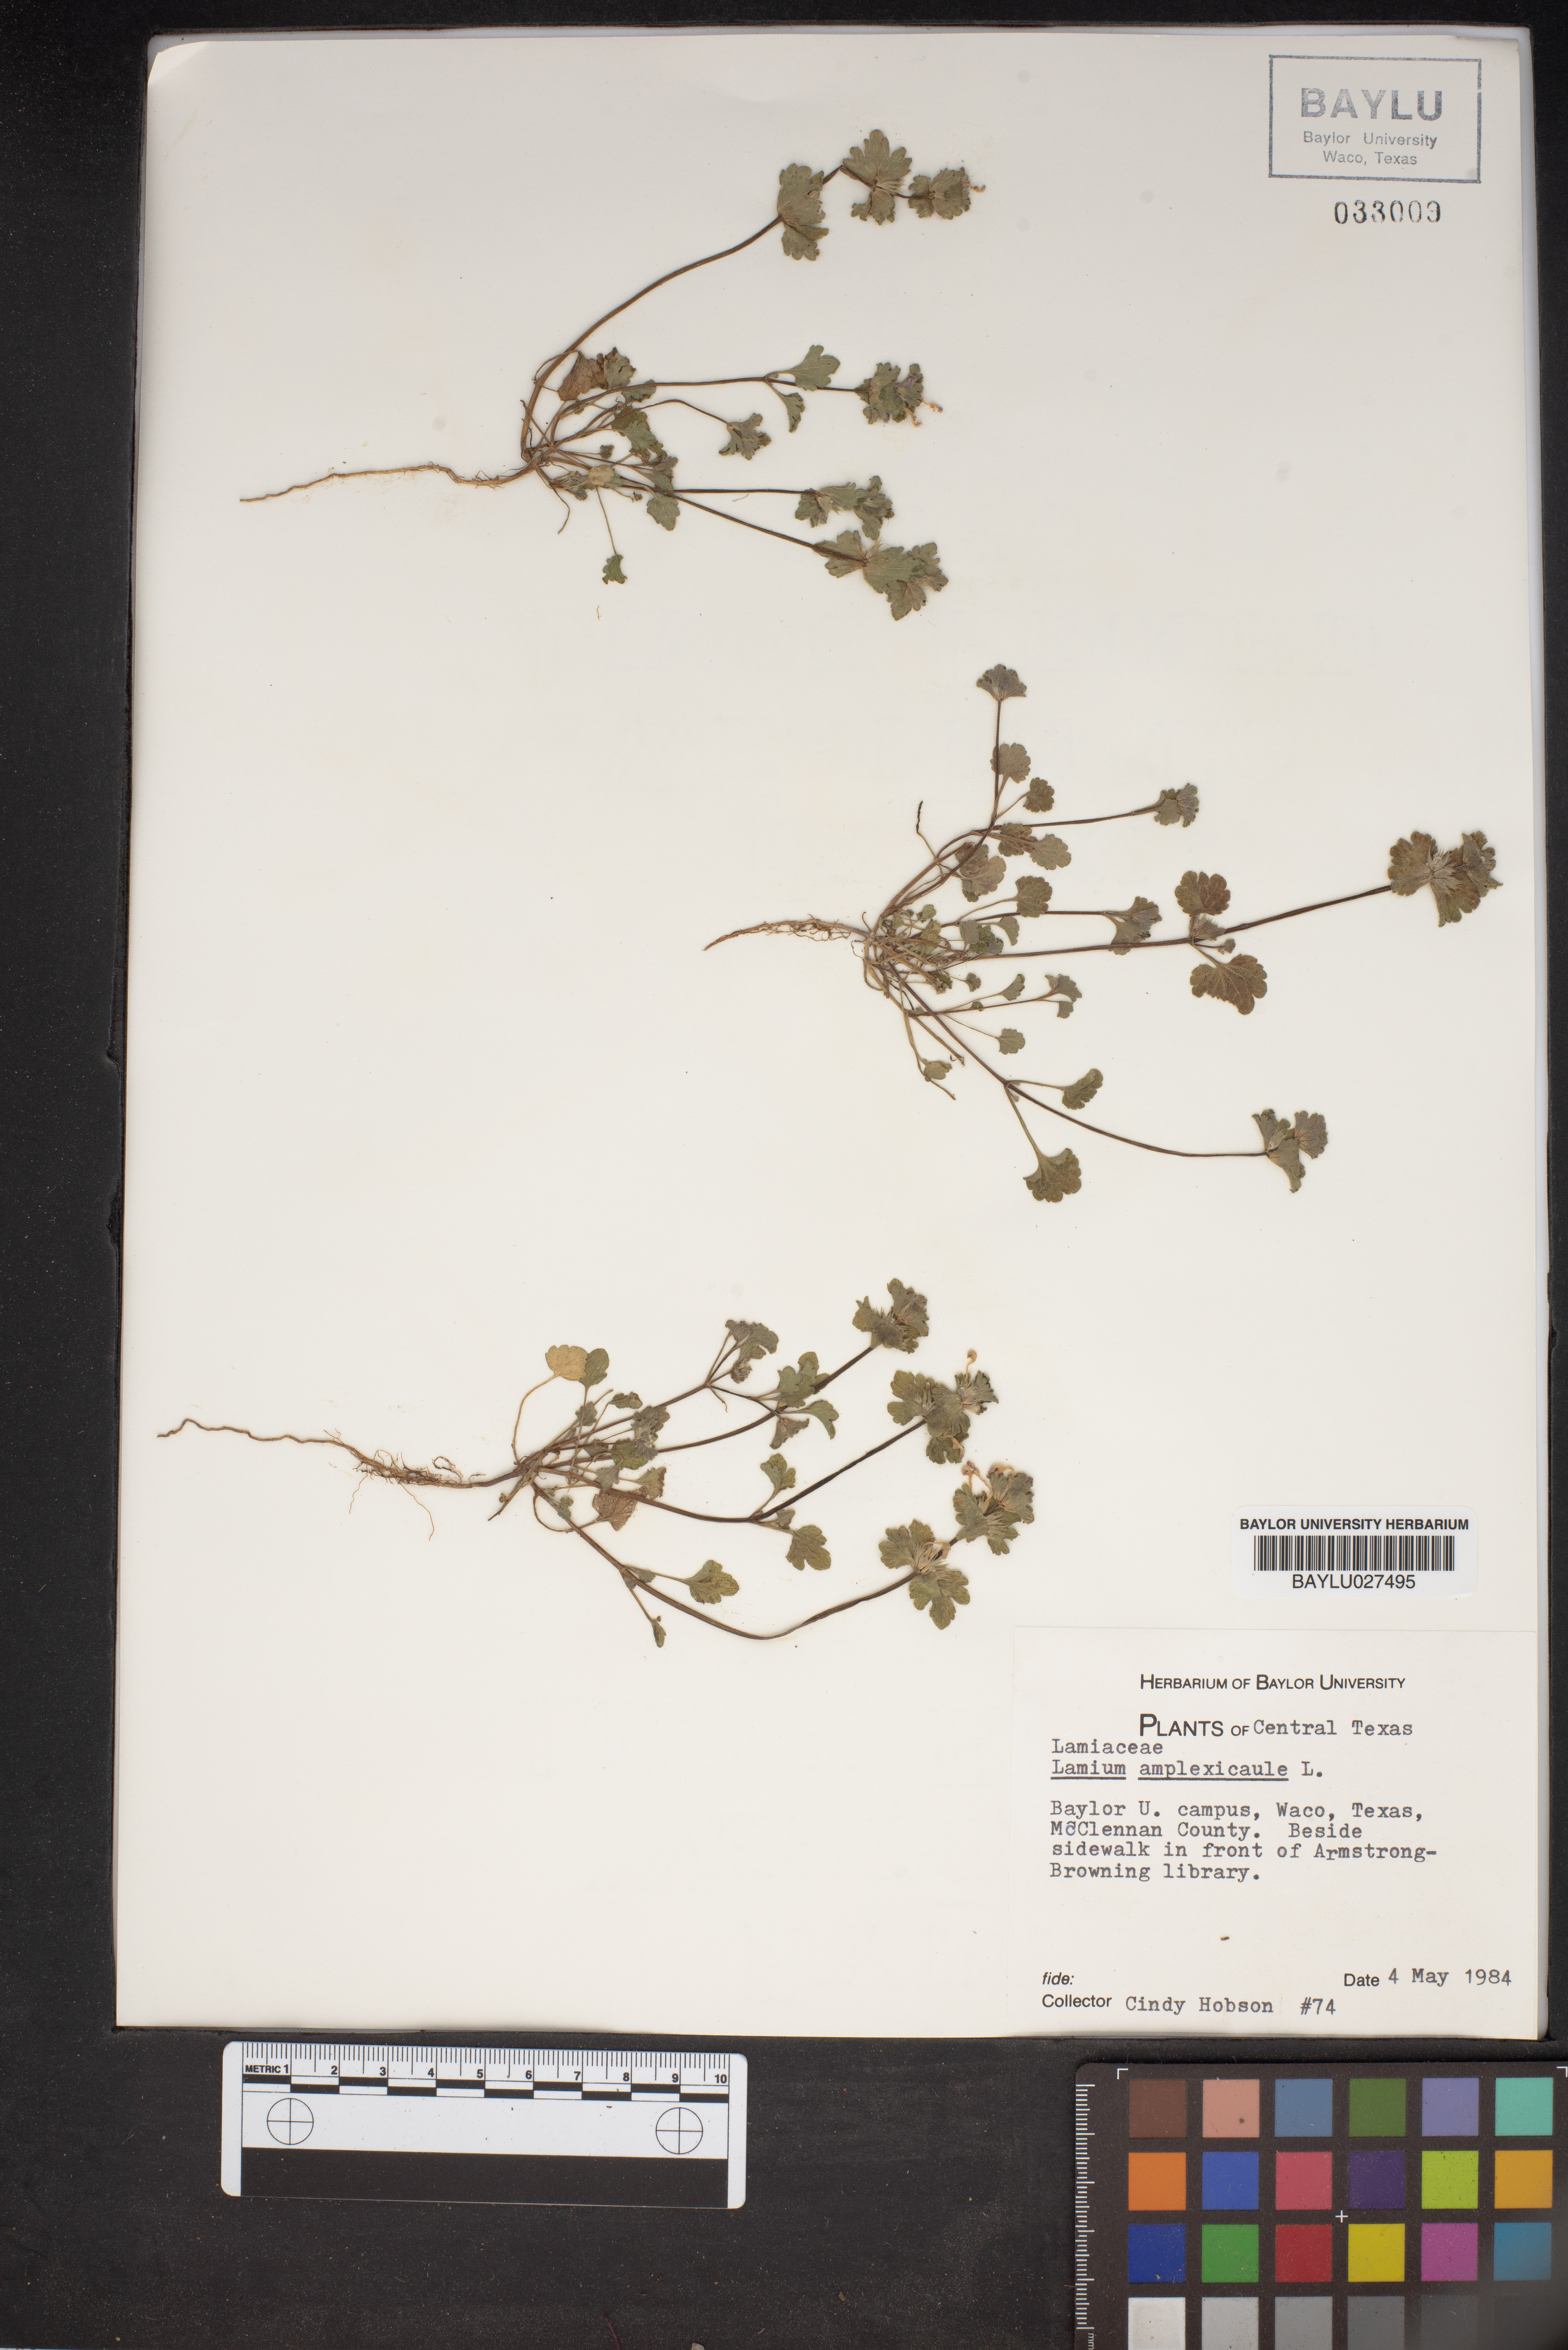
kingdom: Plantae
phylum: Tracheophyta
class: Magnoliopsida
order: Lamiales
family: Lamiaceae
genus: Lamium
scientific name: Lamium amplexicaule
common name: Henbit dead-nettle
